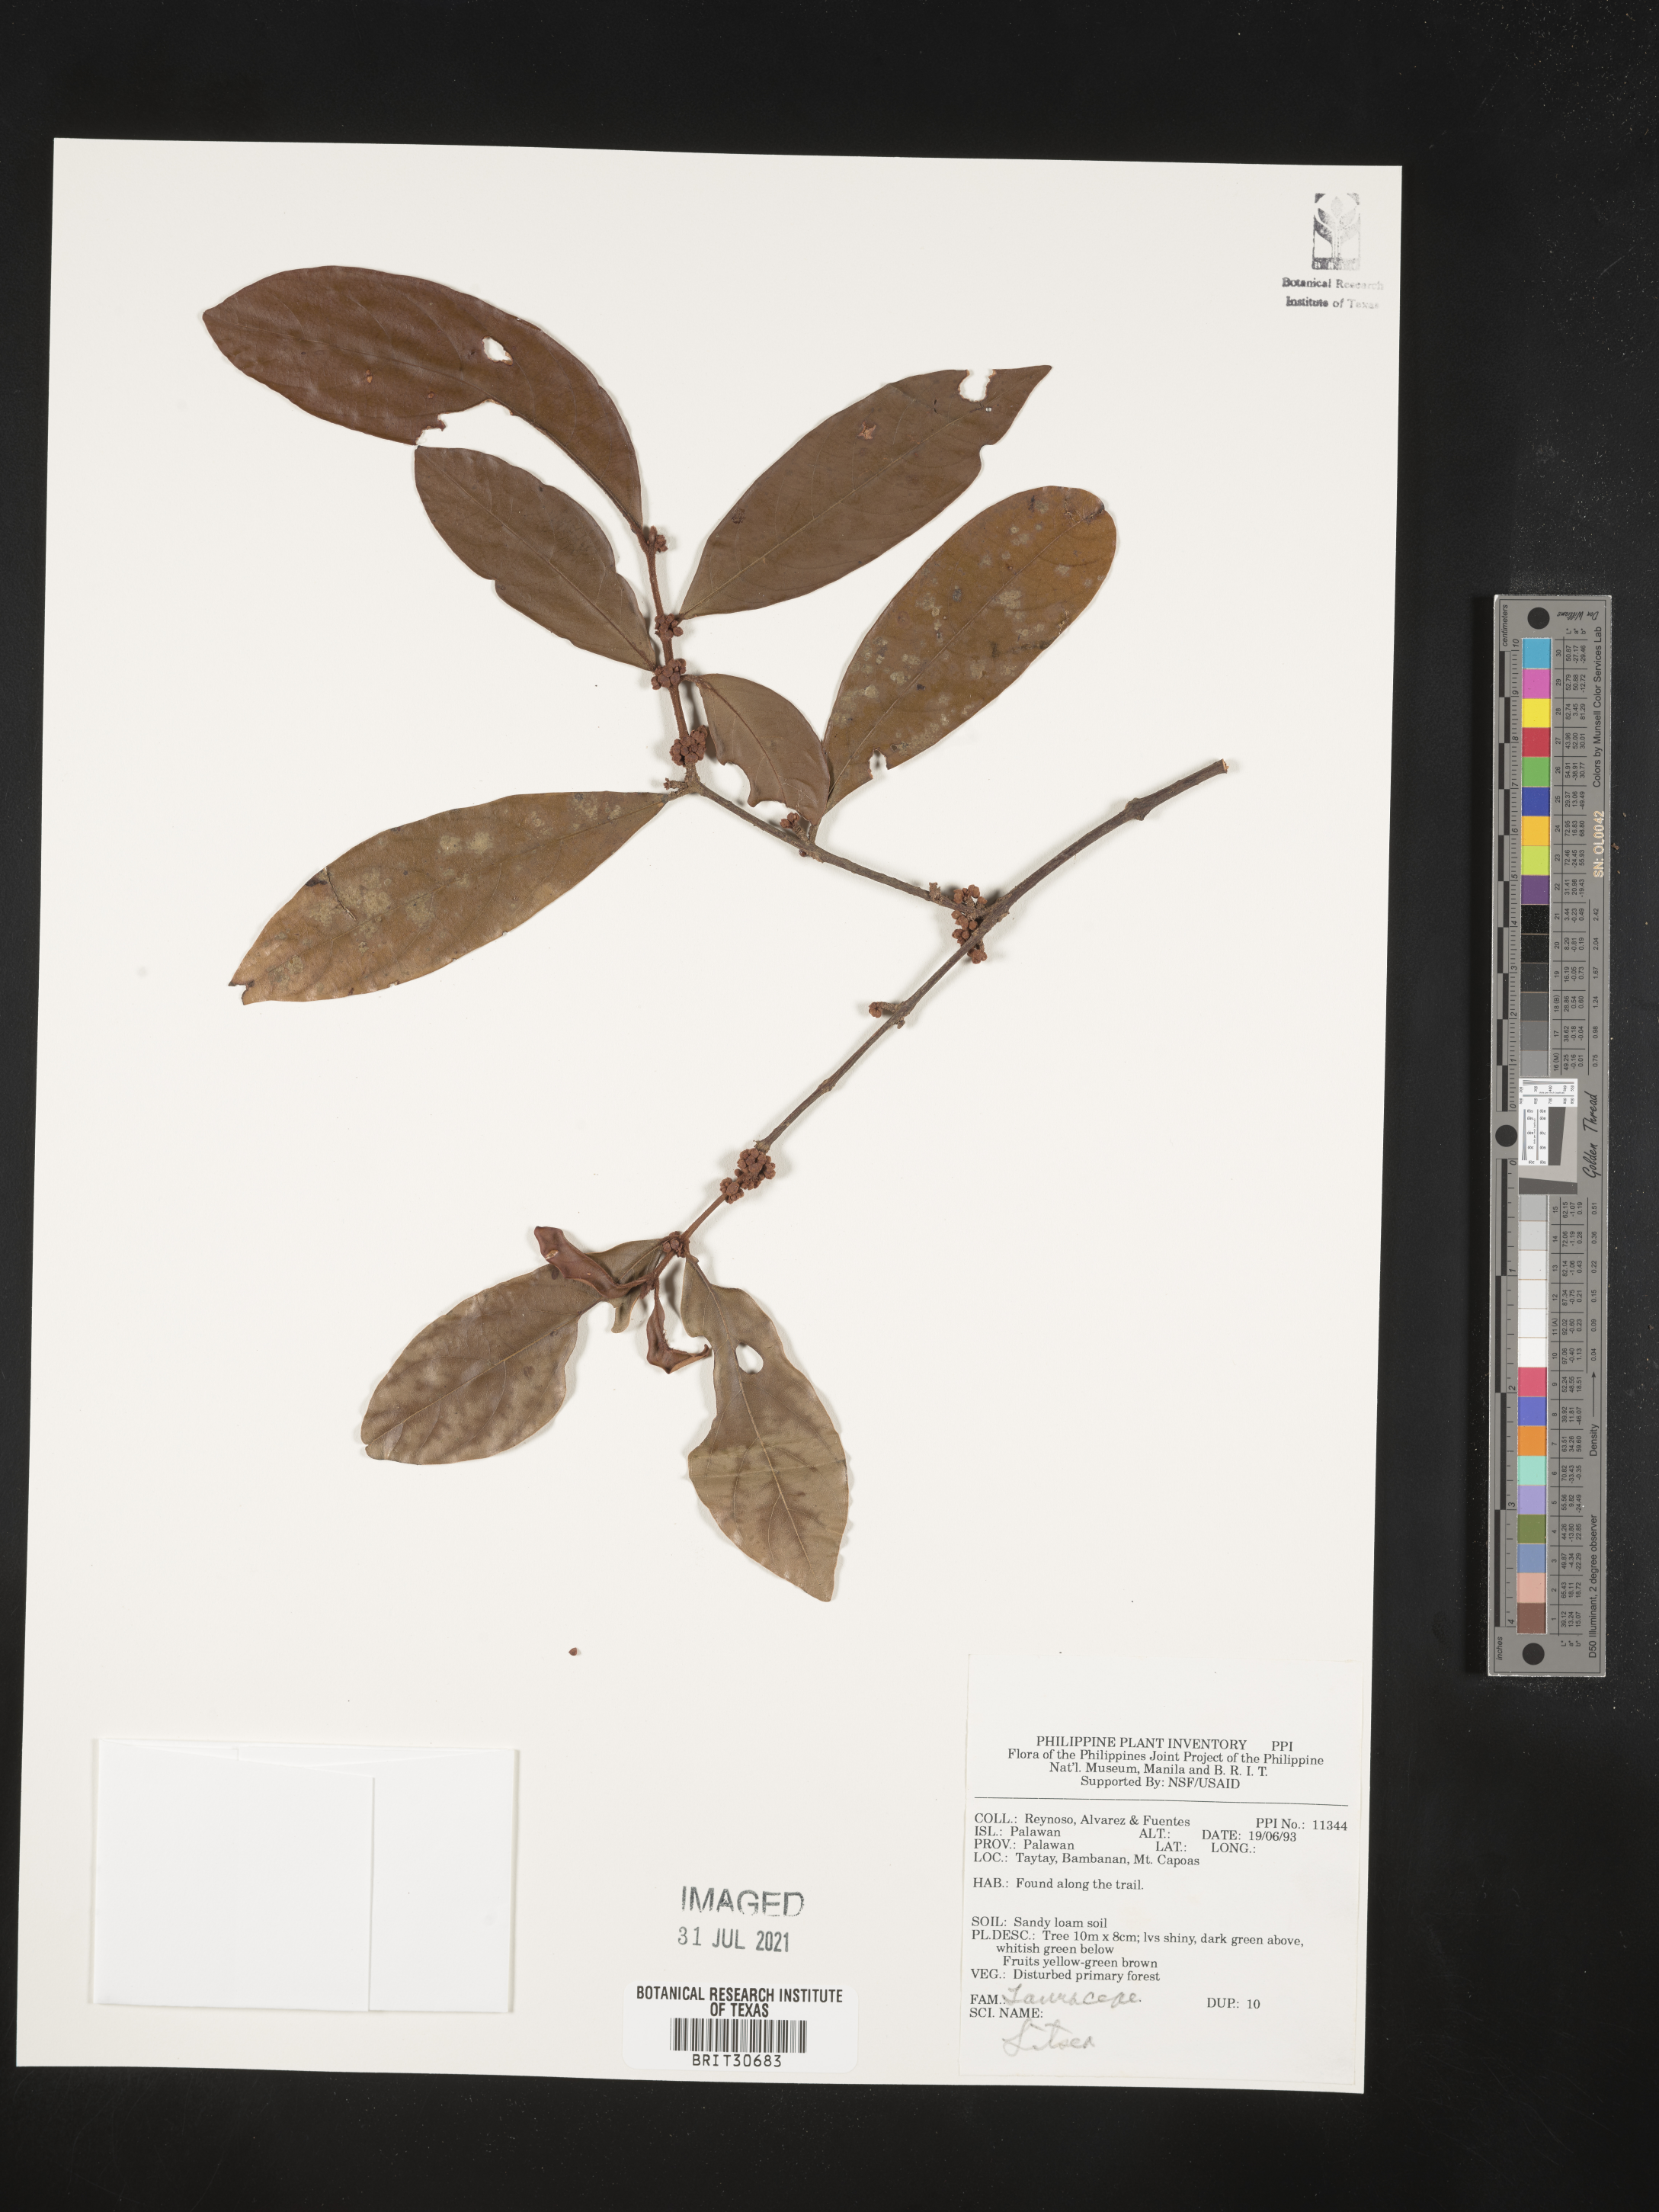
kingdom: Plantae
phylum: Tracheophyta
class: Magnoliopsida
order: Laurales
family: Lauraceae
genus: Litsea
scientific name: Litsea
